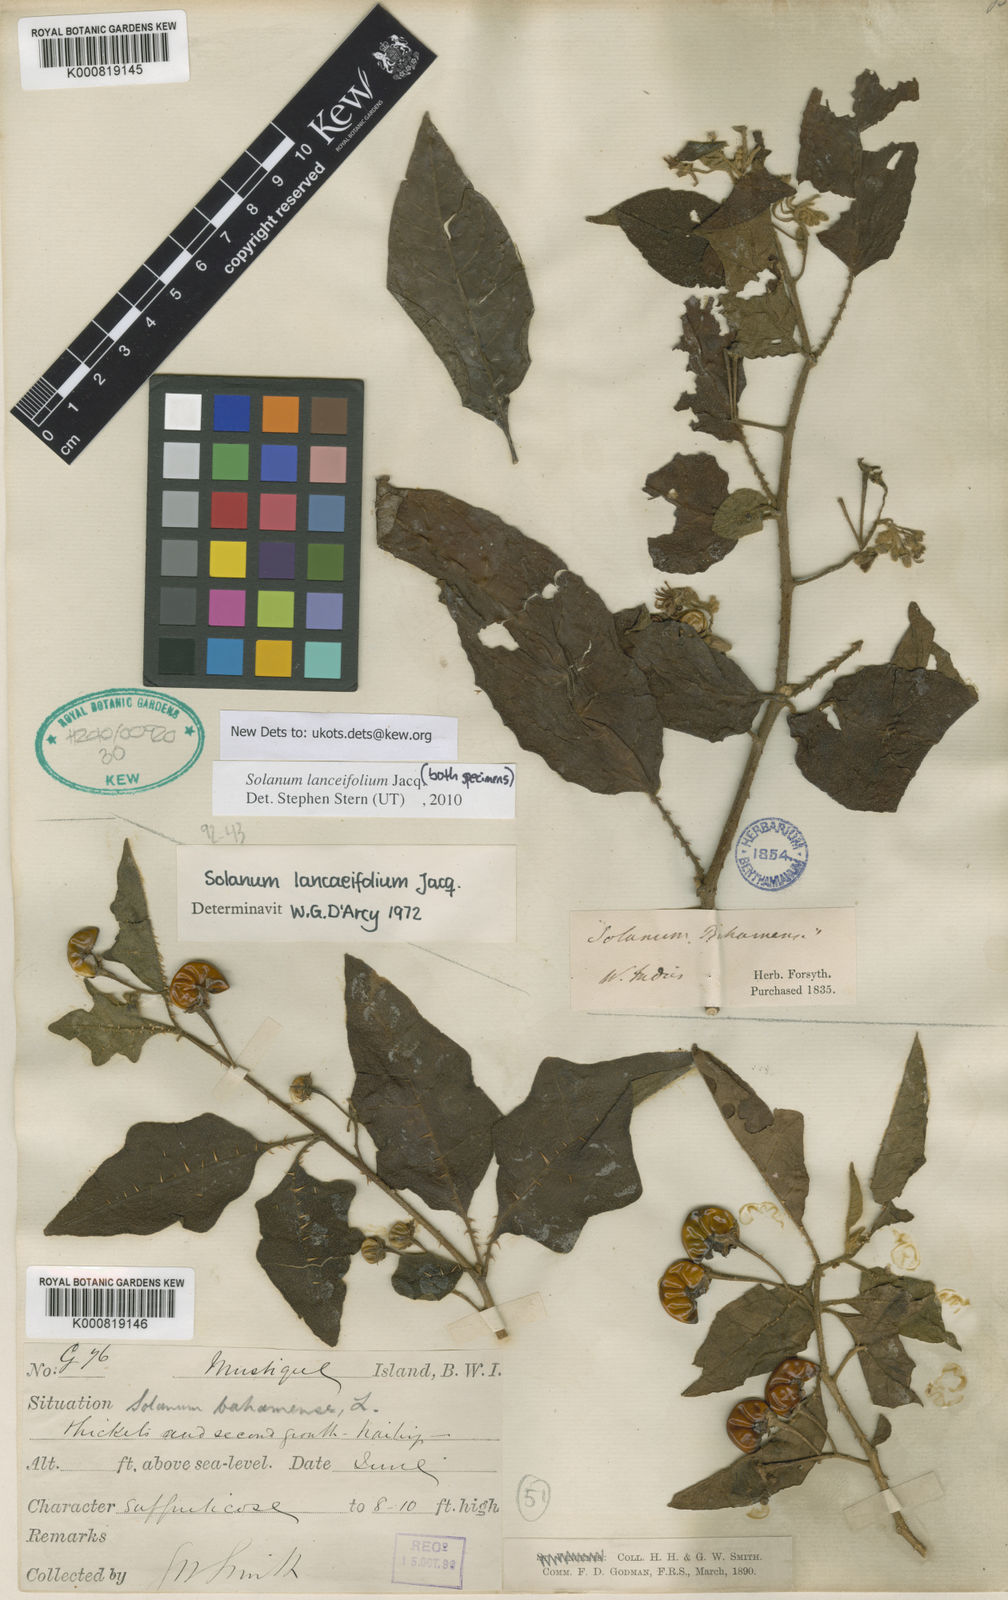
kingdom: Plantae
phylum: Tracheophyta
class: Magnoliopsida
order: Solanales
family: Solanaceae
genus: Solanum
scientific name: Solanum lanceifolium
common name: Lanceleaf nightshade
